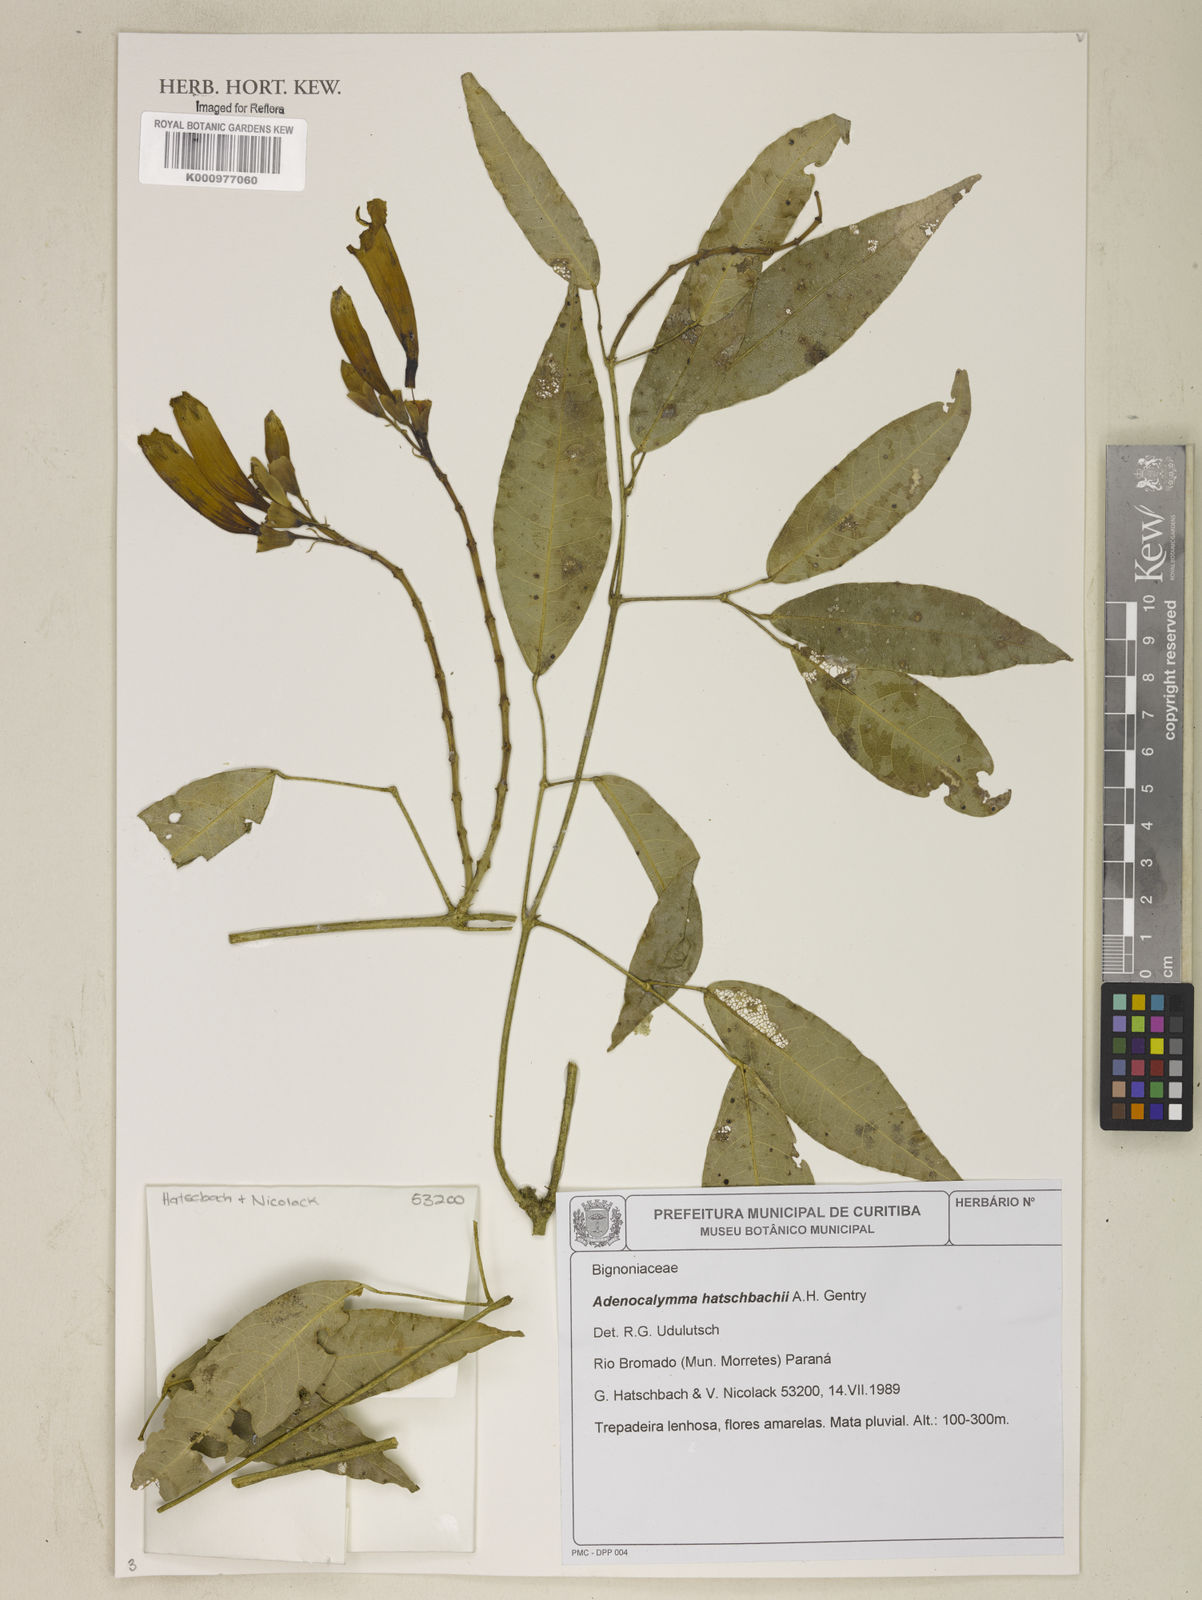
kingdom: Plantae
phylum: Tracheophyta
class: Magnoliopsida
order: Lamiales
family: Bignoniaceae
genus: Adenocalymma
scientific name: Adenocalymma hatschbachii
